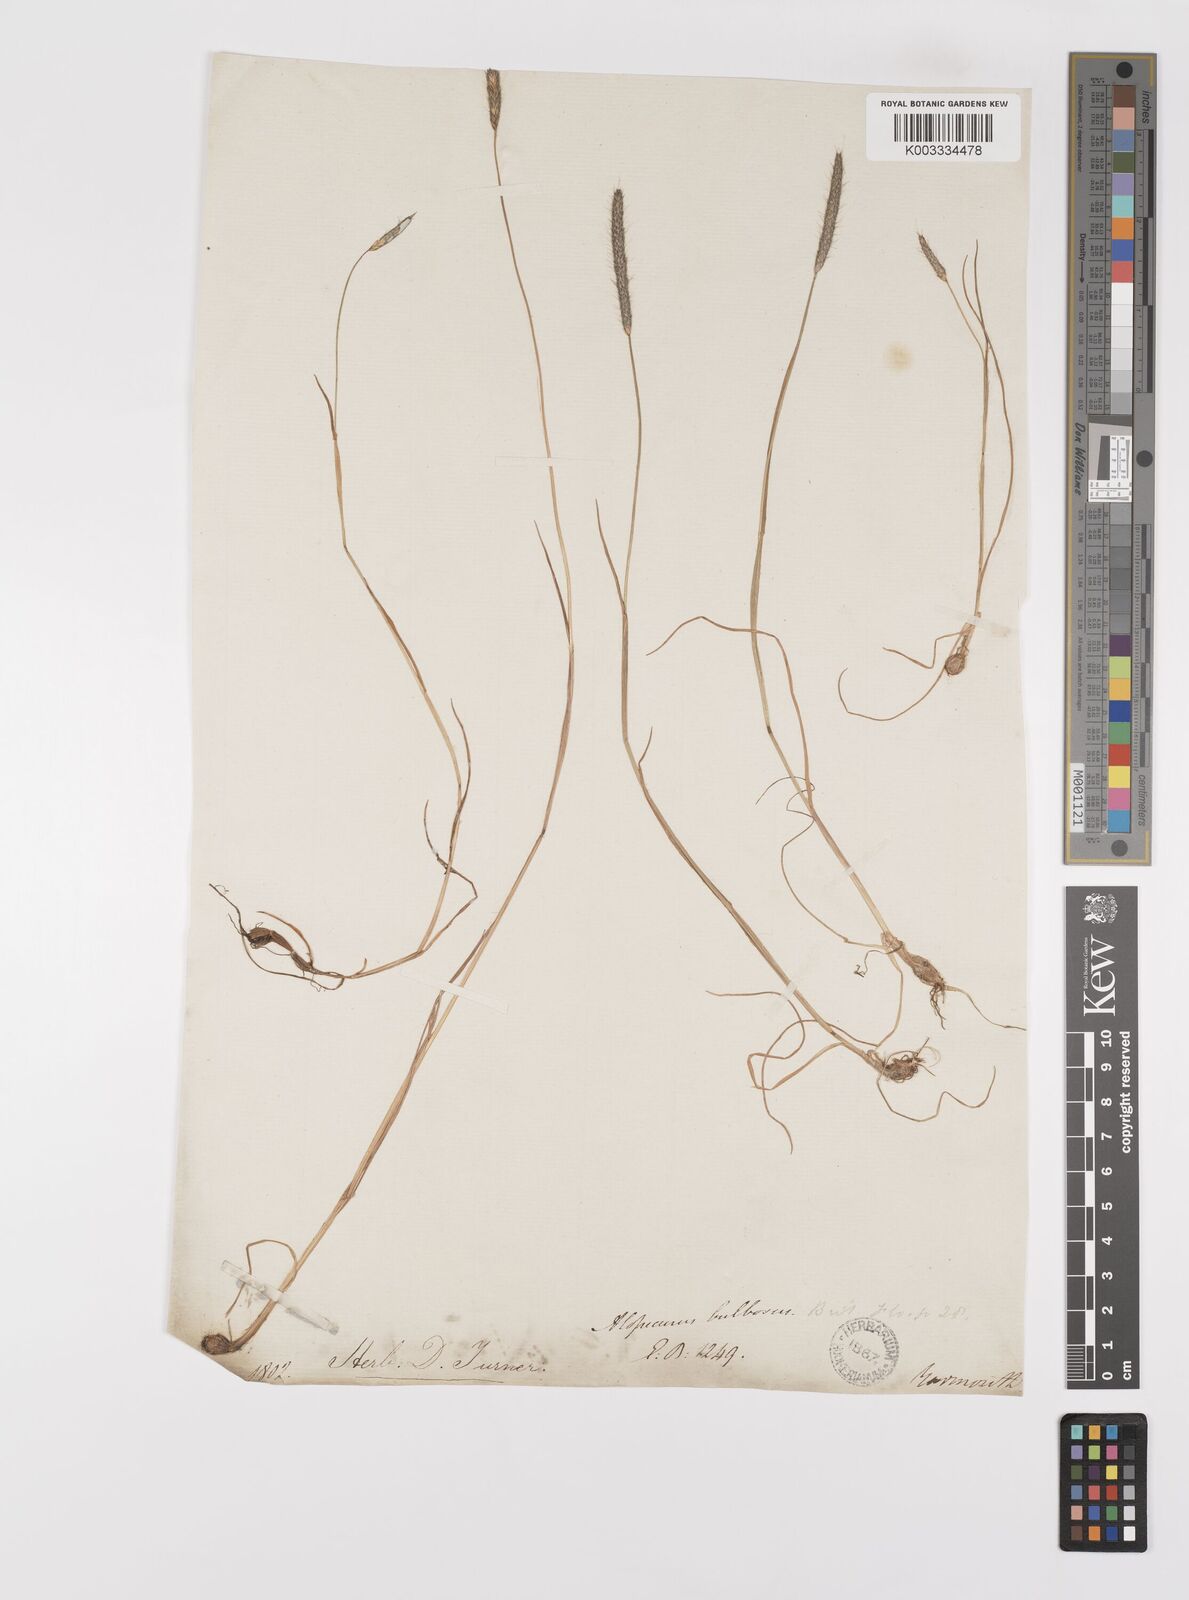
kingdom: Plantae
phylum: Tracheophyta
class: Liliopsida
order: Poales
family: Poaceae
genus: Alopecurus
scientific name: Alopecurus bulbosus
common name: Bulbous foxtail
